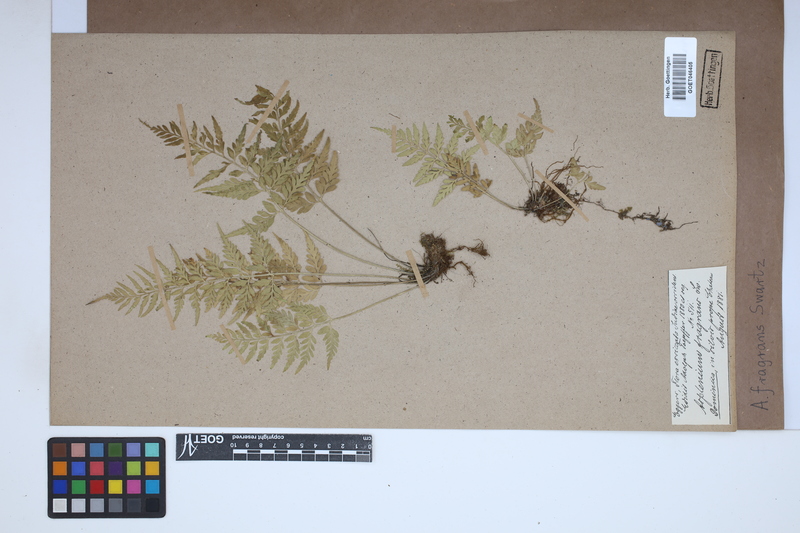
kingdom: Plantae
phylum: Tracheophyta
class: Polypodiopsida
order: Polypodiales
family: Aspleniaceae
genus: Asplenium
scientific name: Asplenium fragrans
